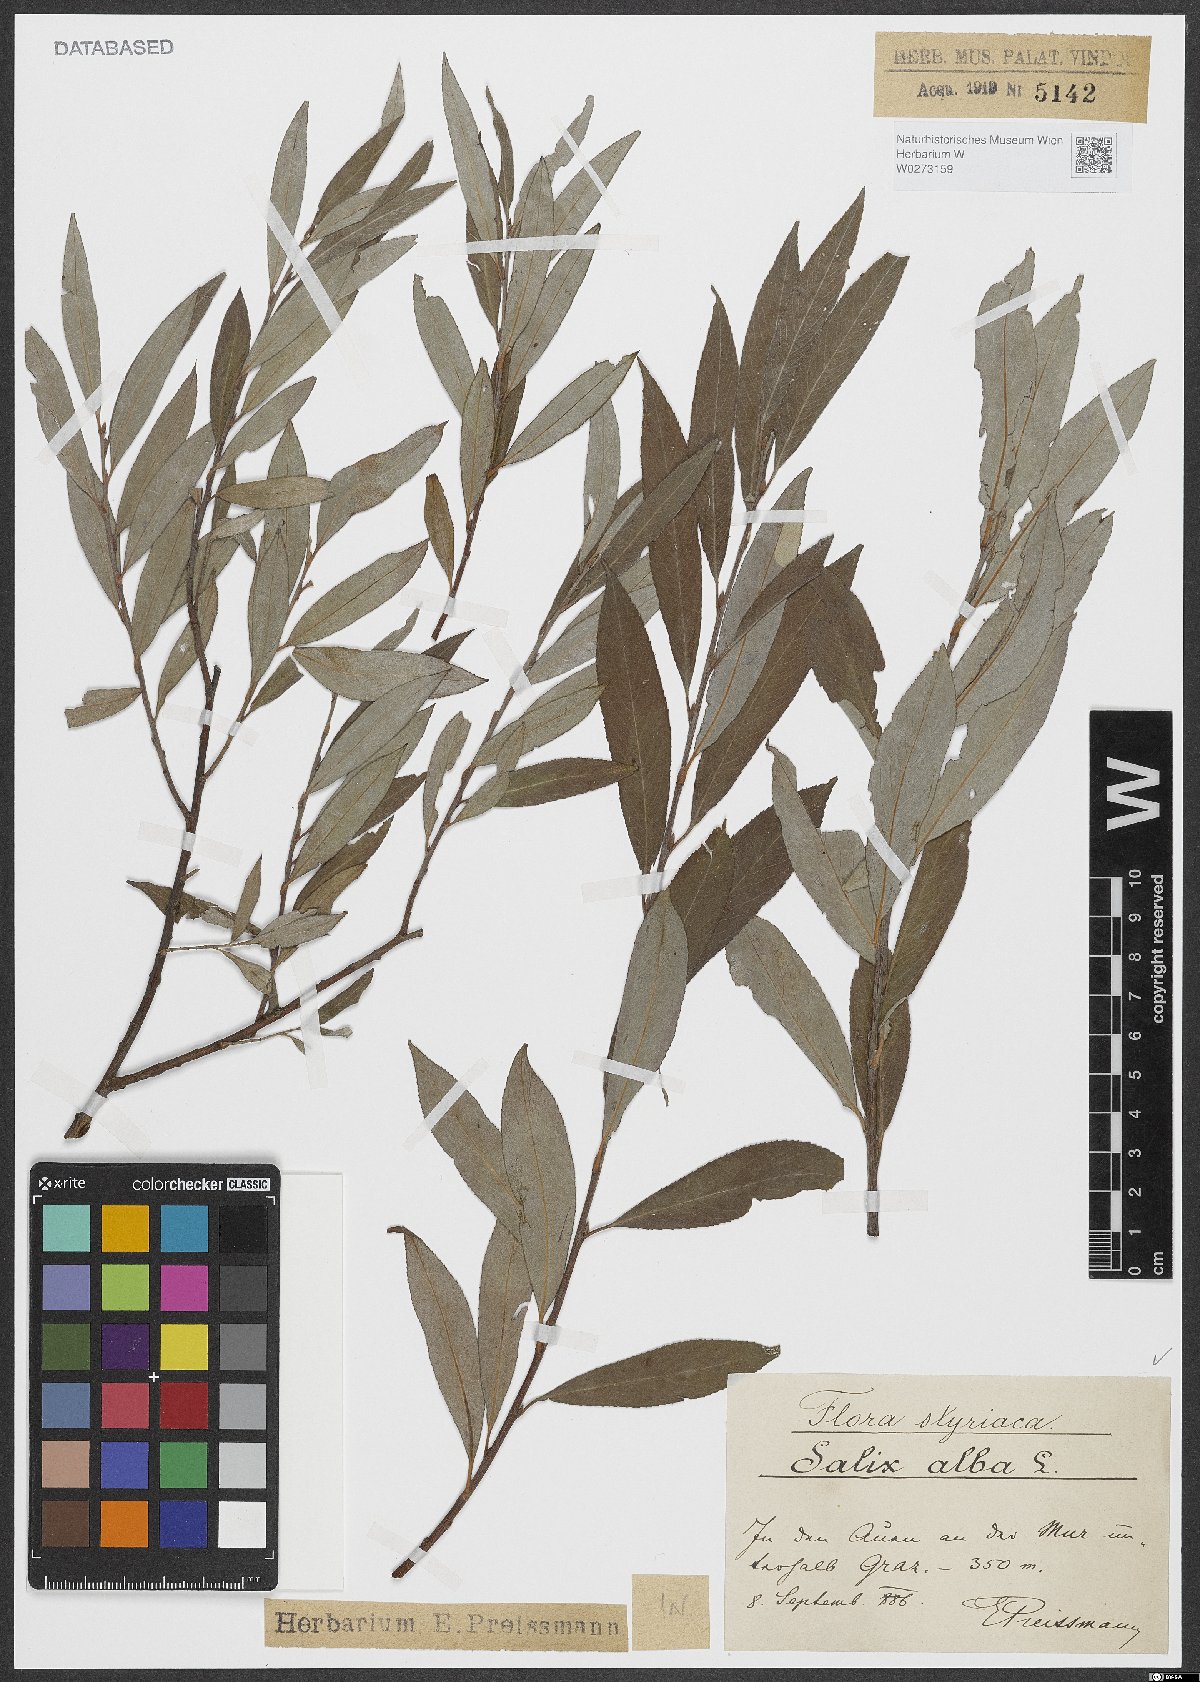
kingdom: Plantae
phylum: Tracheophyta
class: Magnoliopsida
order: Malpighiales
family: Salicaceae
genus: Salix
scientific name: Salix alba
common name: White willow
